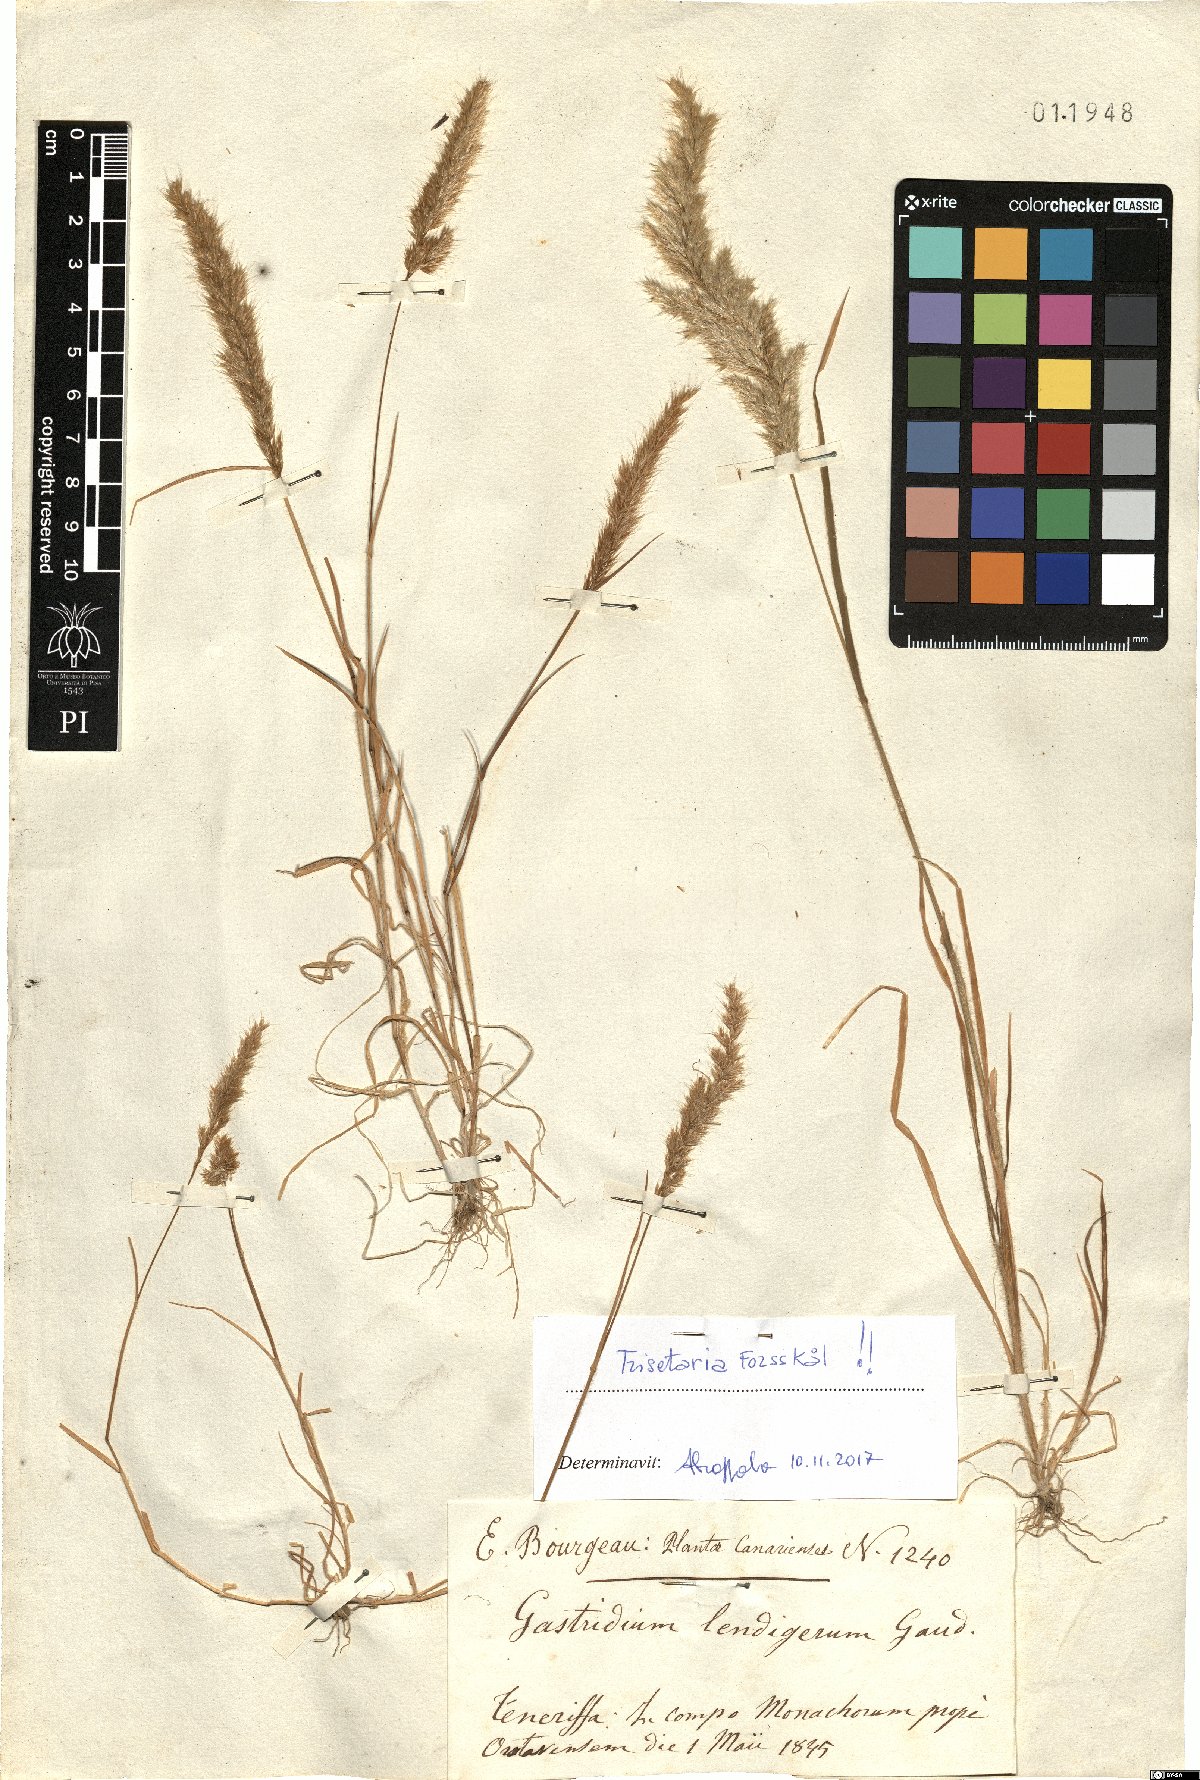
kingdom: Plantae
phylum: Tracheophyta
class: Liliopsida
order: Poales
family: Poaceae
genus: Trisetaria
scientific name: Trisetaria
